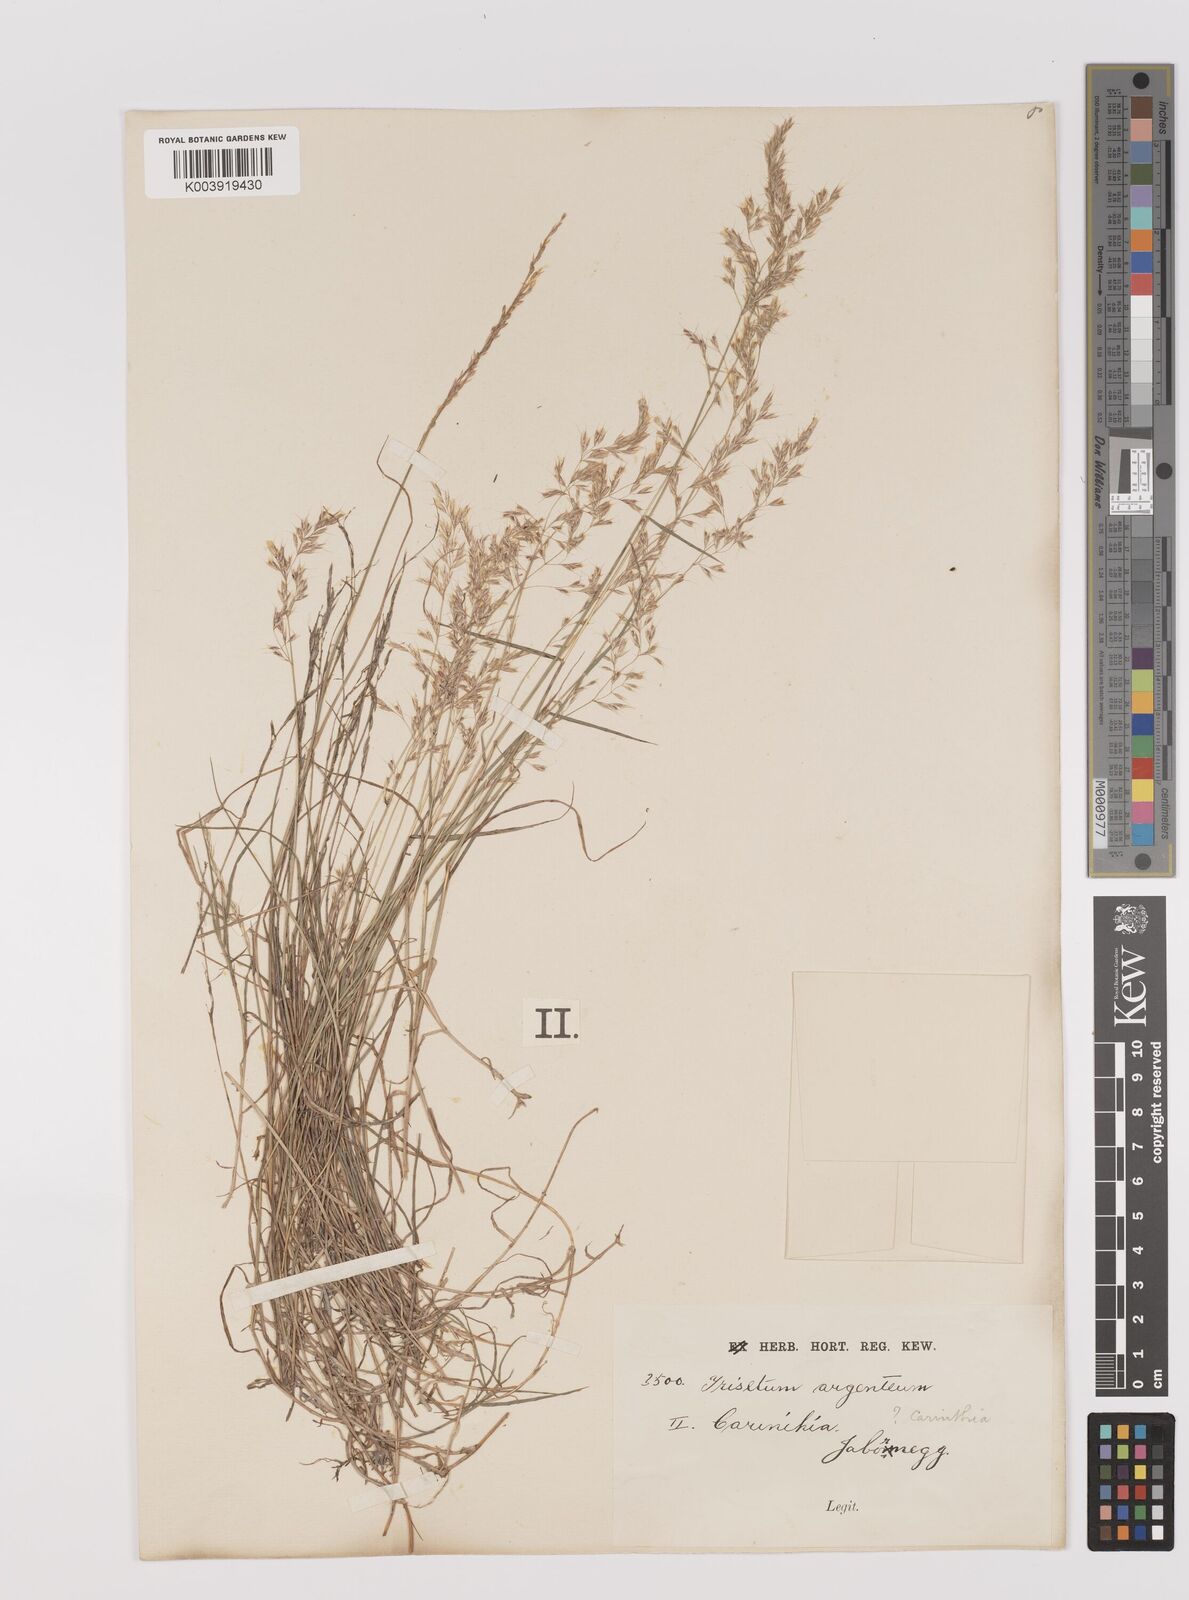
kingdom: Plantae
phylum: Tracheophyta
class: Liliopsida
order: Poales
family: Poaceae
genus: Trisetum
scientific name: Trisetum argenteum
